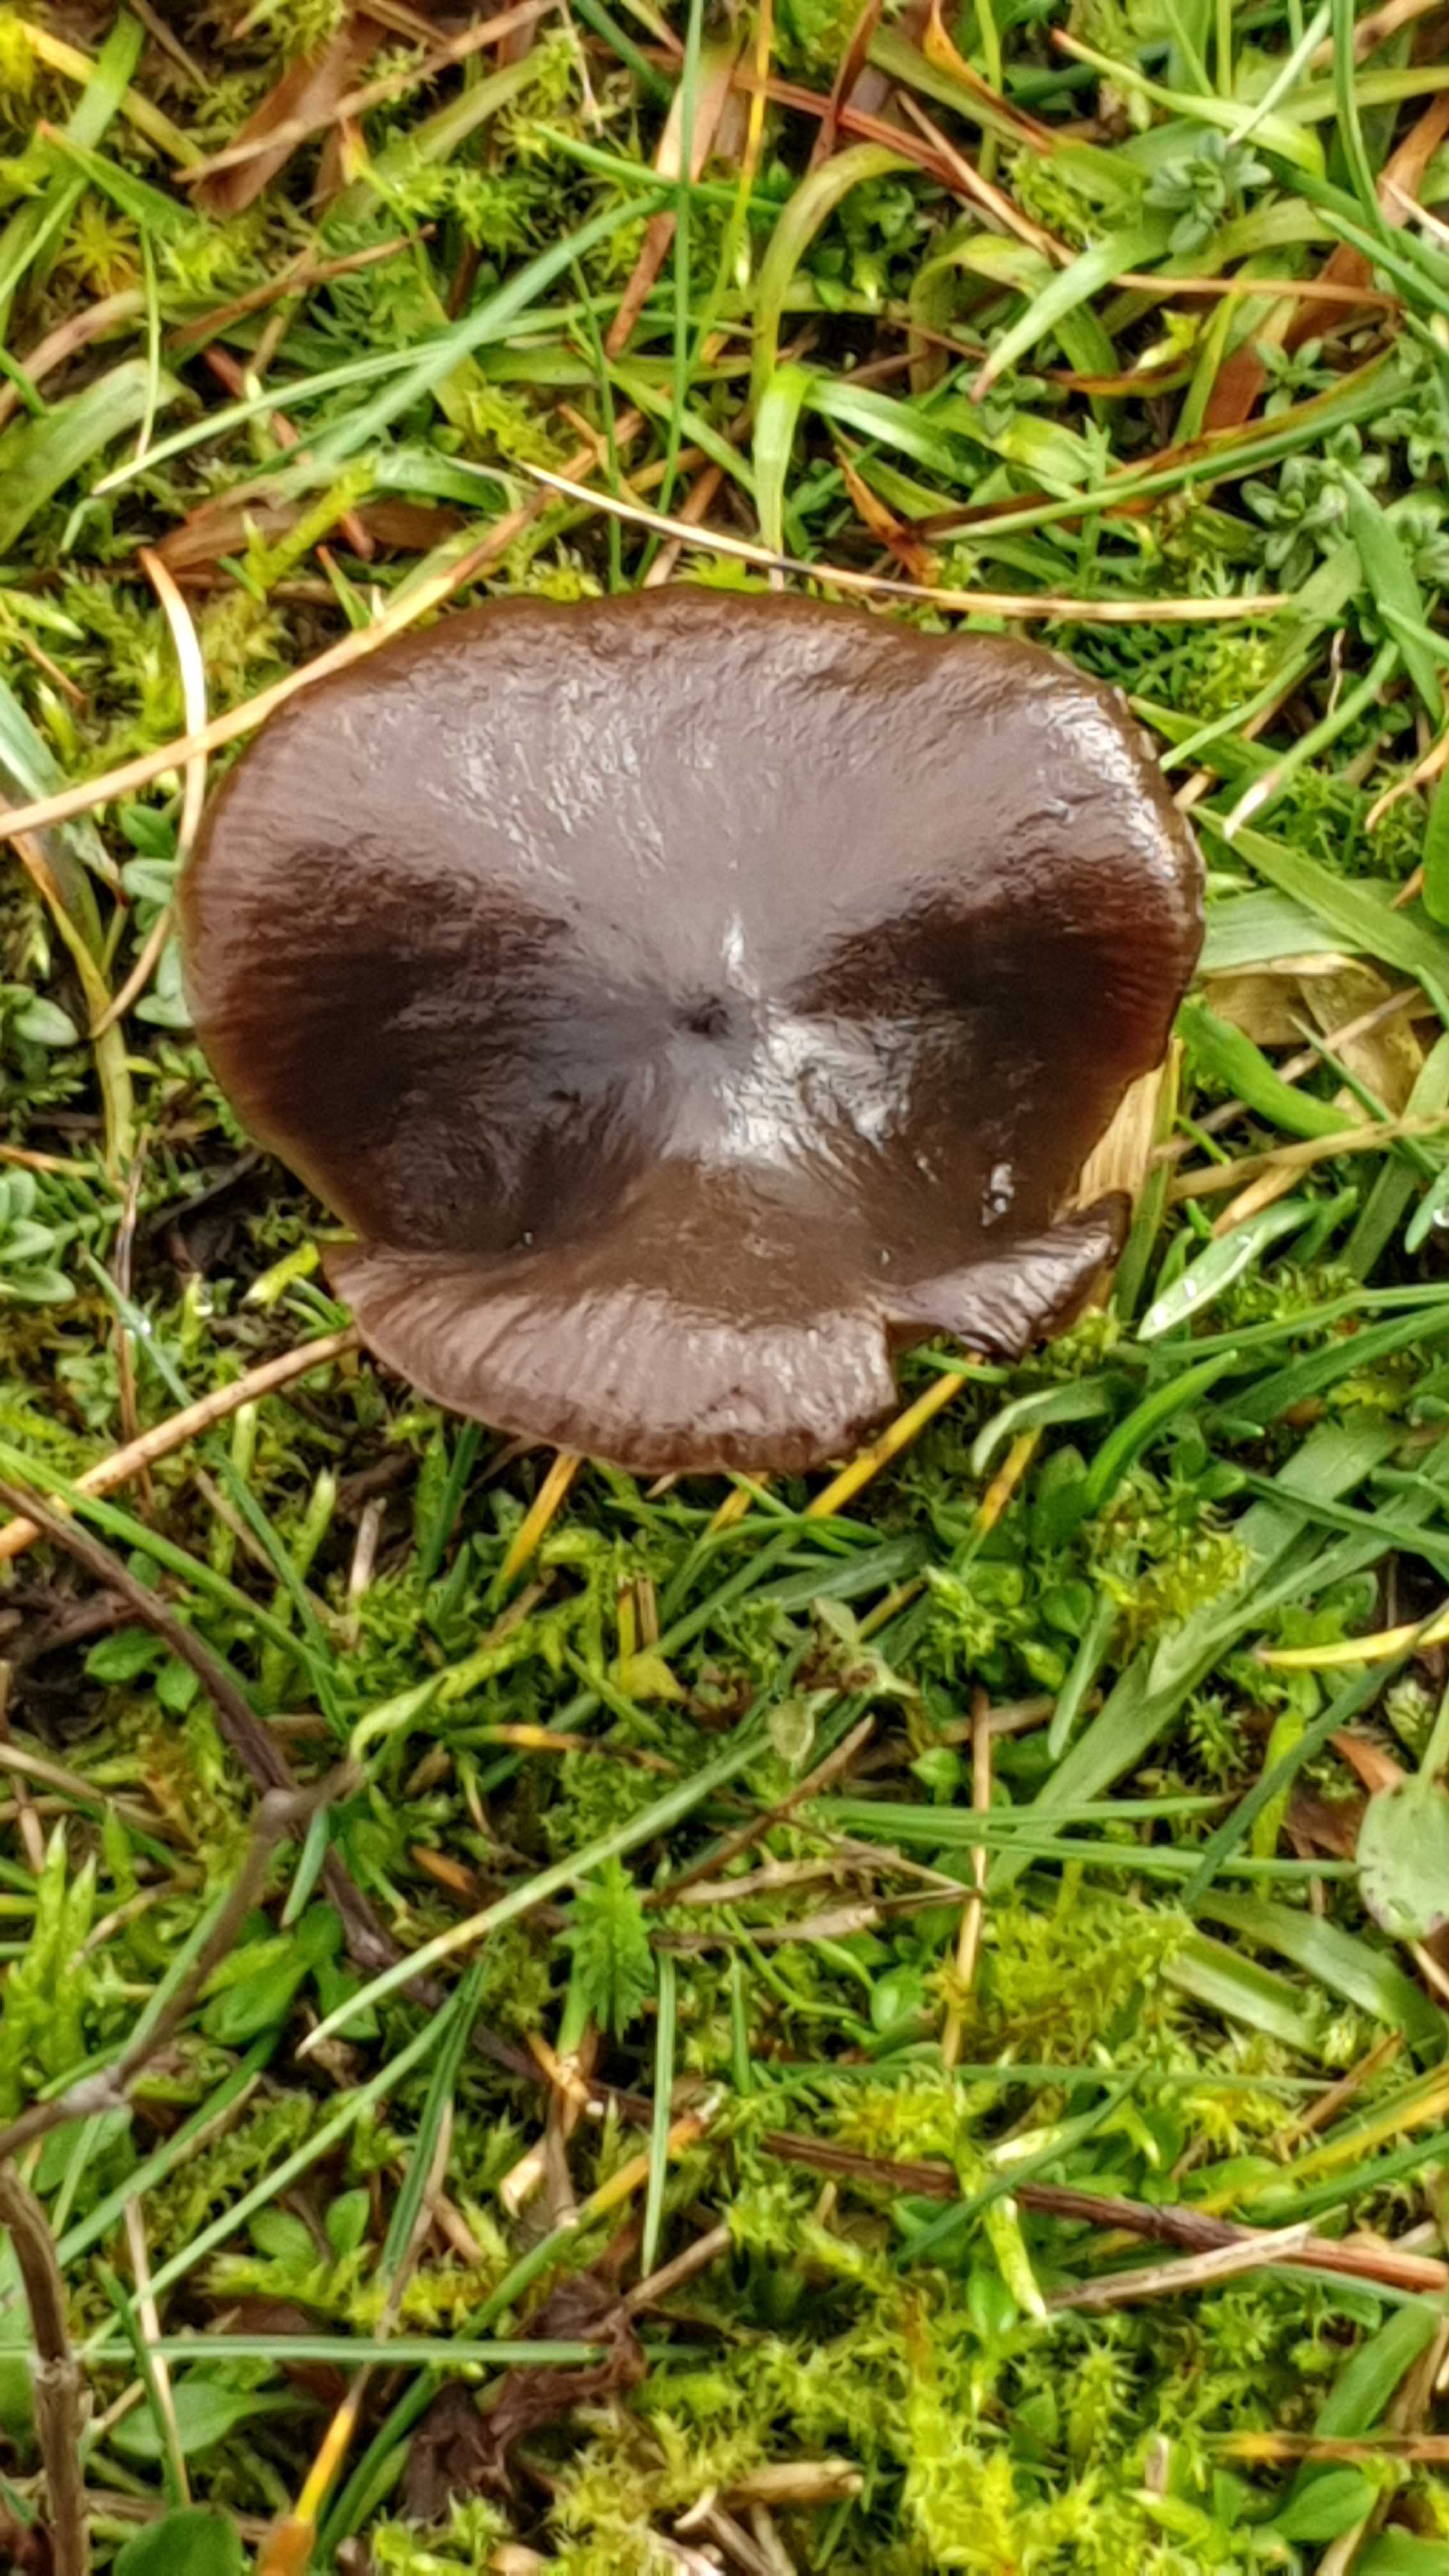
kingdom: Fungi
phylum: Basidiomycota
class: Agaricomycetes
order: Agaricales
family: Entolomataceae
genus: Entoloma
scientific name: Entoloma sericeum
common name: silkeglinsende rødblad
